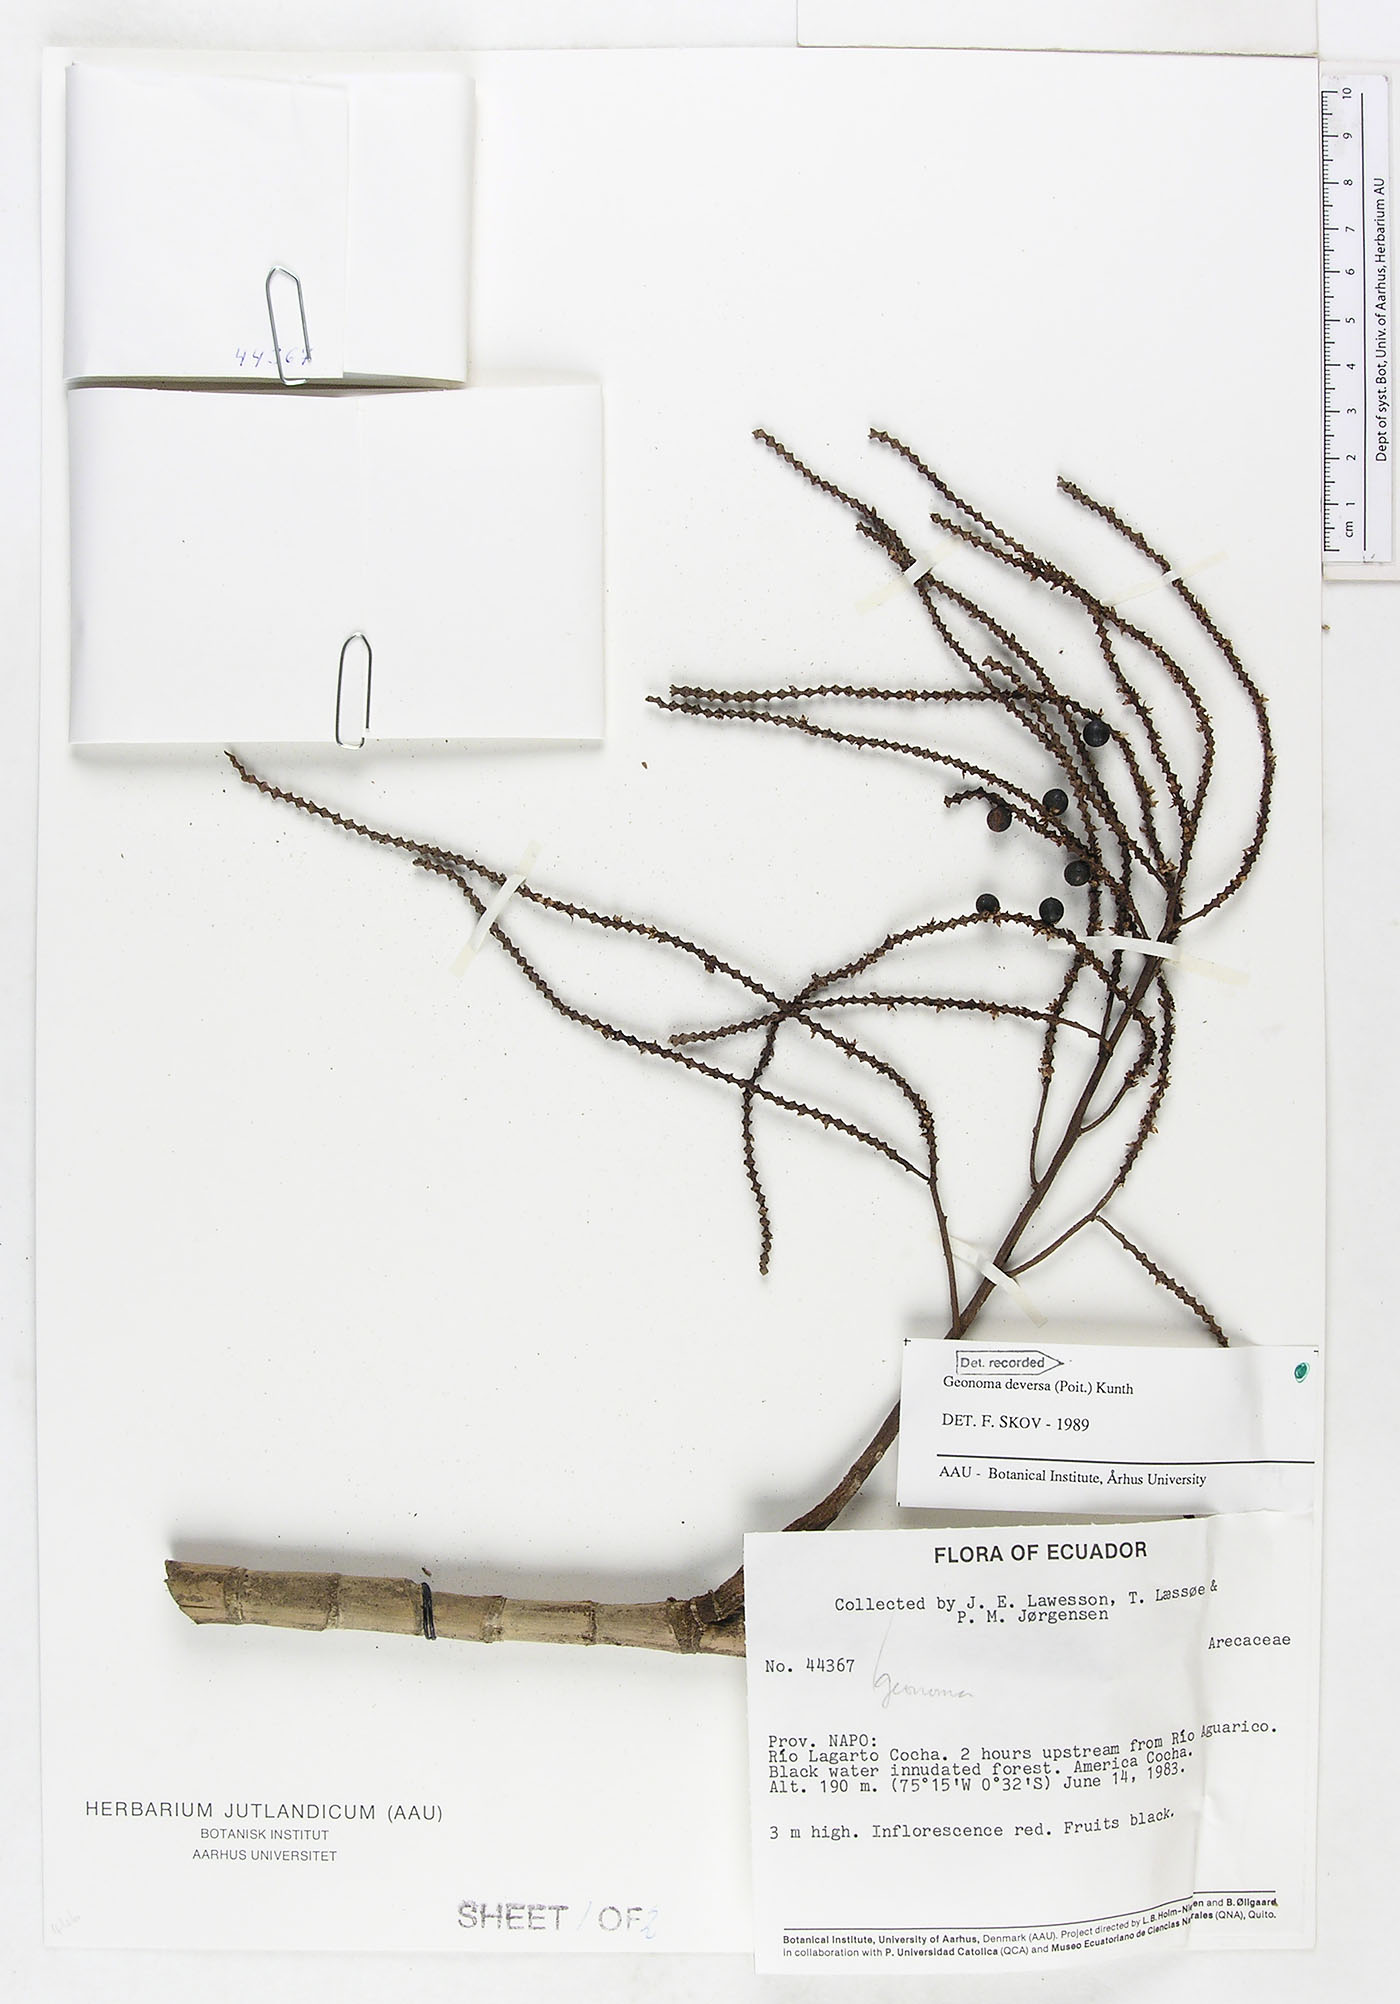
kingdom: Plantae
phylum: Tracheophyta
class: Liliopsida
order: Arecales
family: Arecaceae
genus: Geonoma
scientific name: Geonoma deversa
